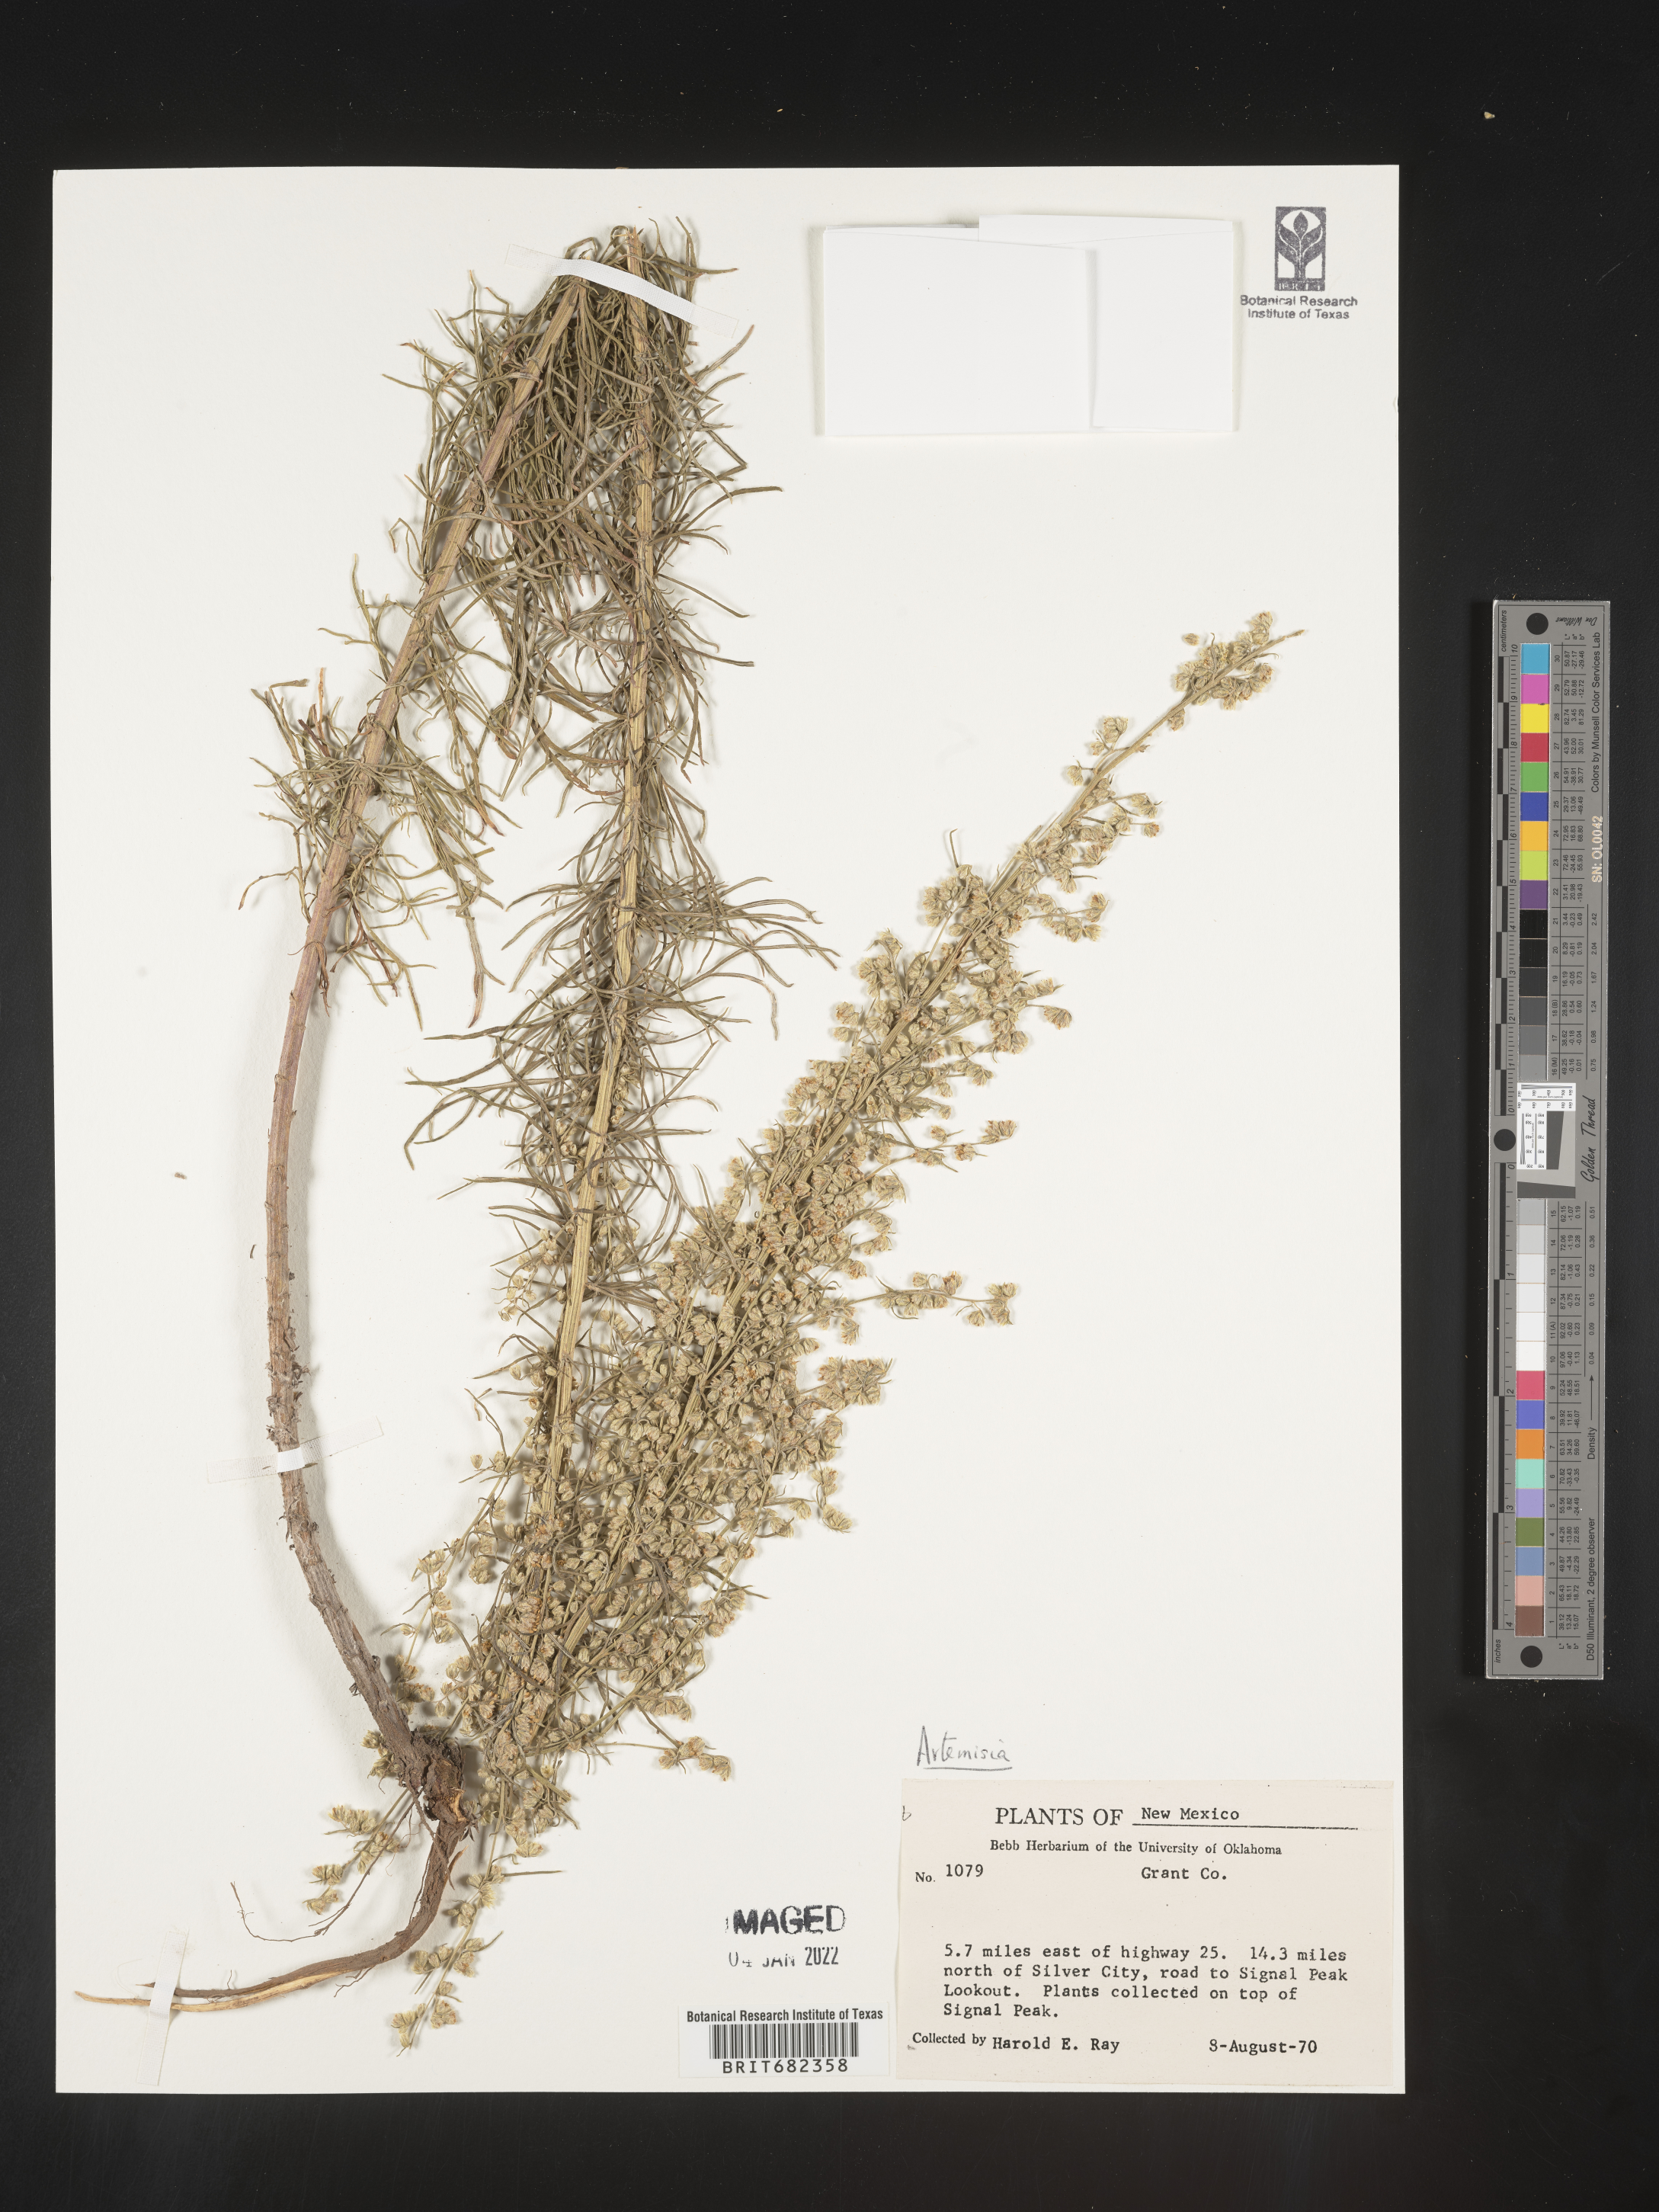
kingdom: Plantae
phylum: Tracheophyta
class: Magnoliopsida
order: Asterales
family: Asteraceae
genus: Artemisia
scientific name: Artemisia
